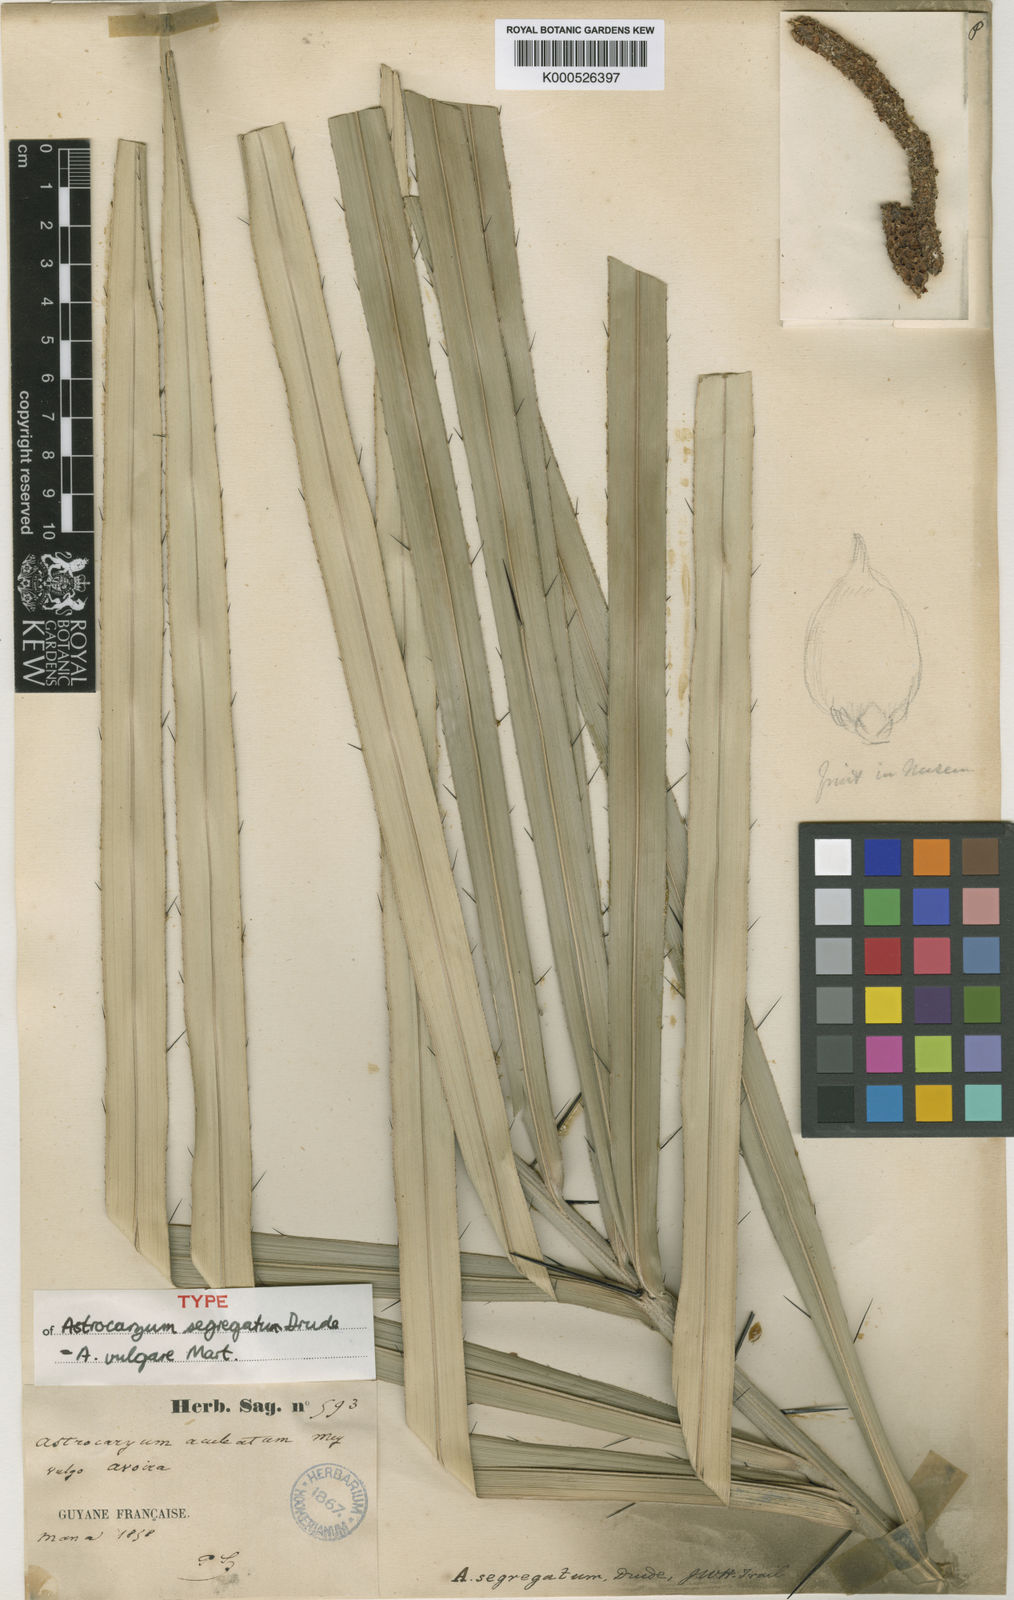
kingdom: Plantae
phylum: Tracheophyta
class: Liliopsida
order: Arecales
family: Arecaceae
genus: Astrocaryum
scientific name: Astrocaryum vulgare
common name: Tucum palm
